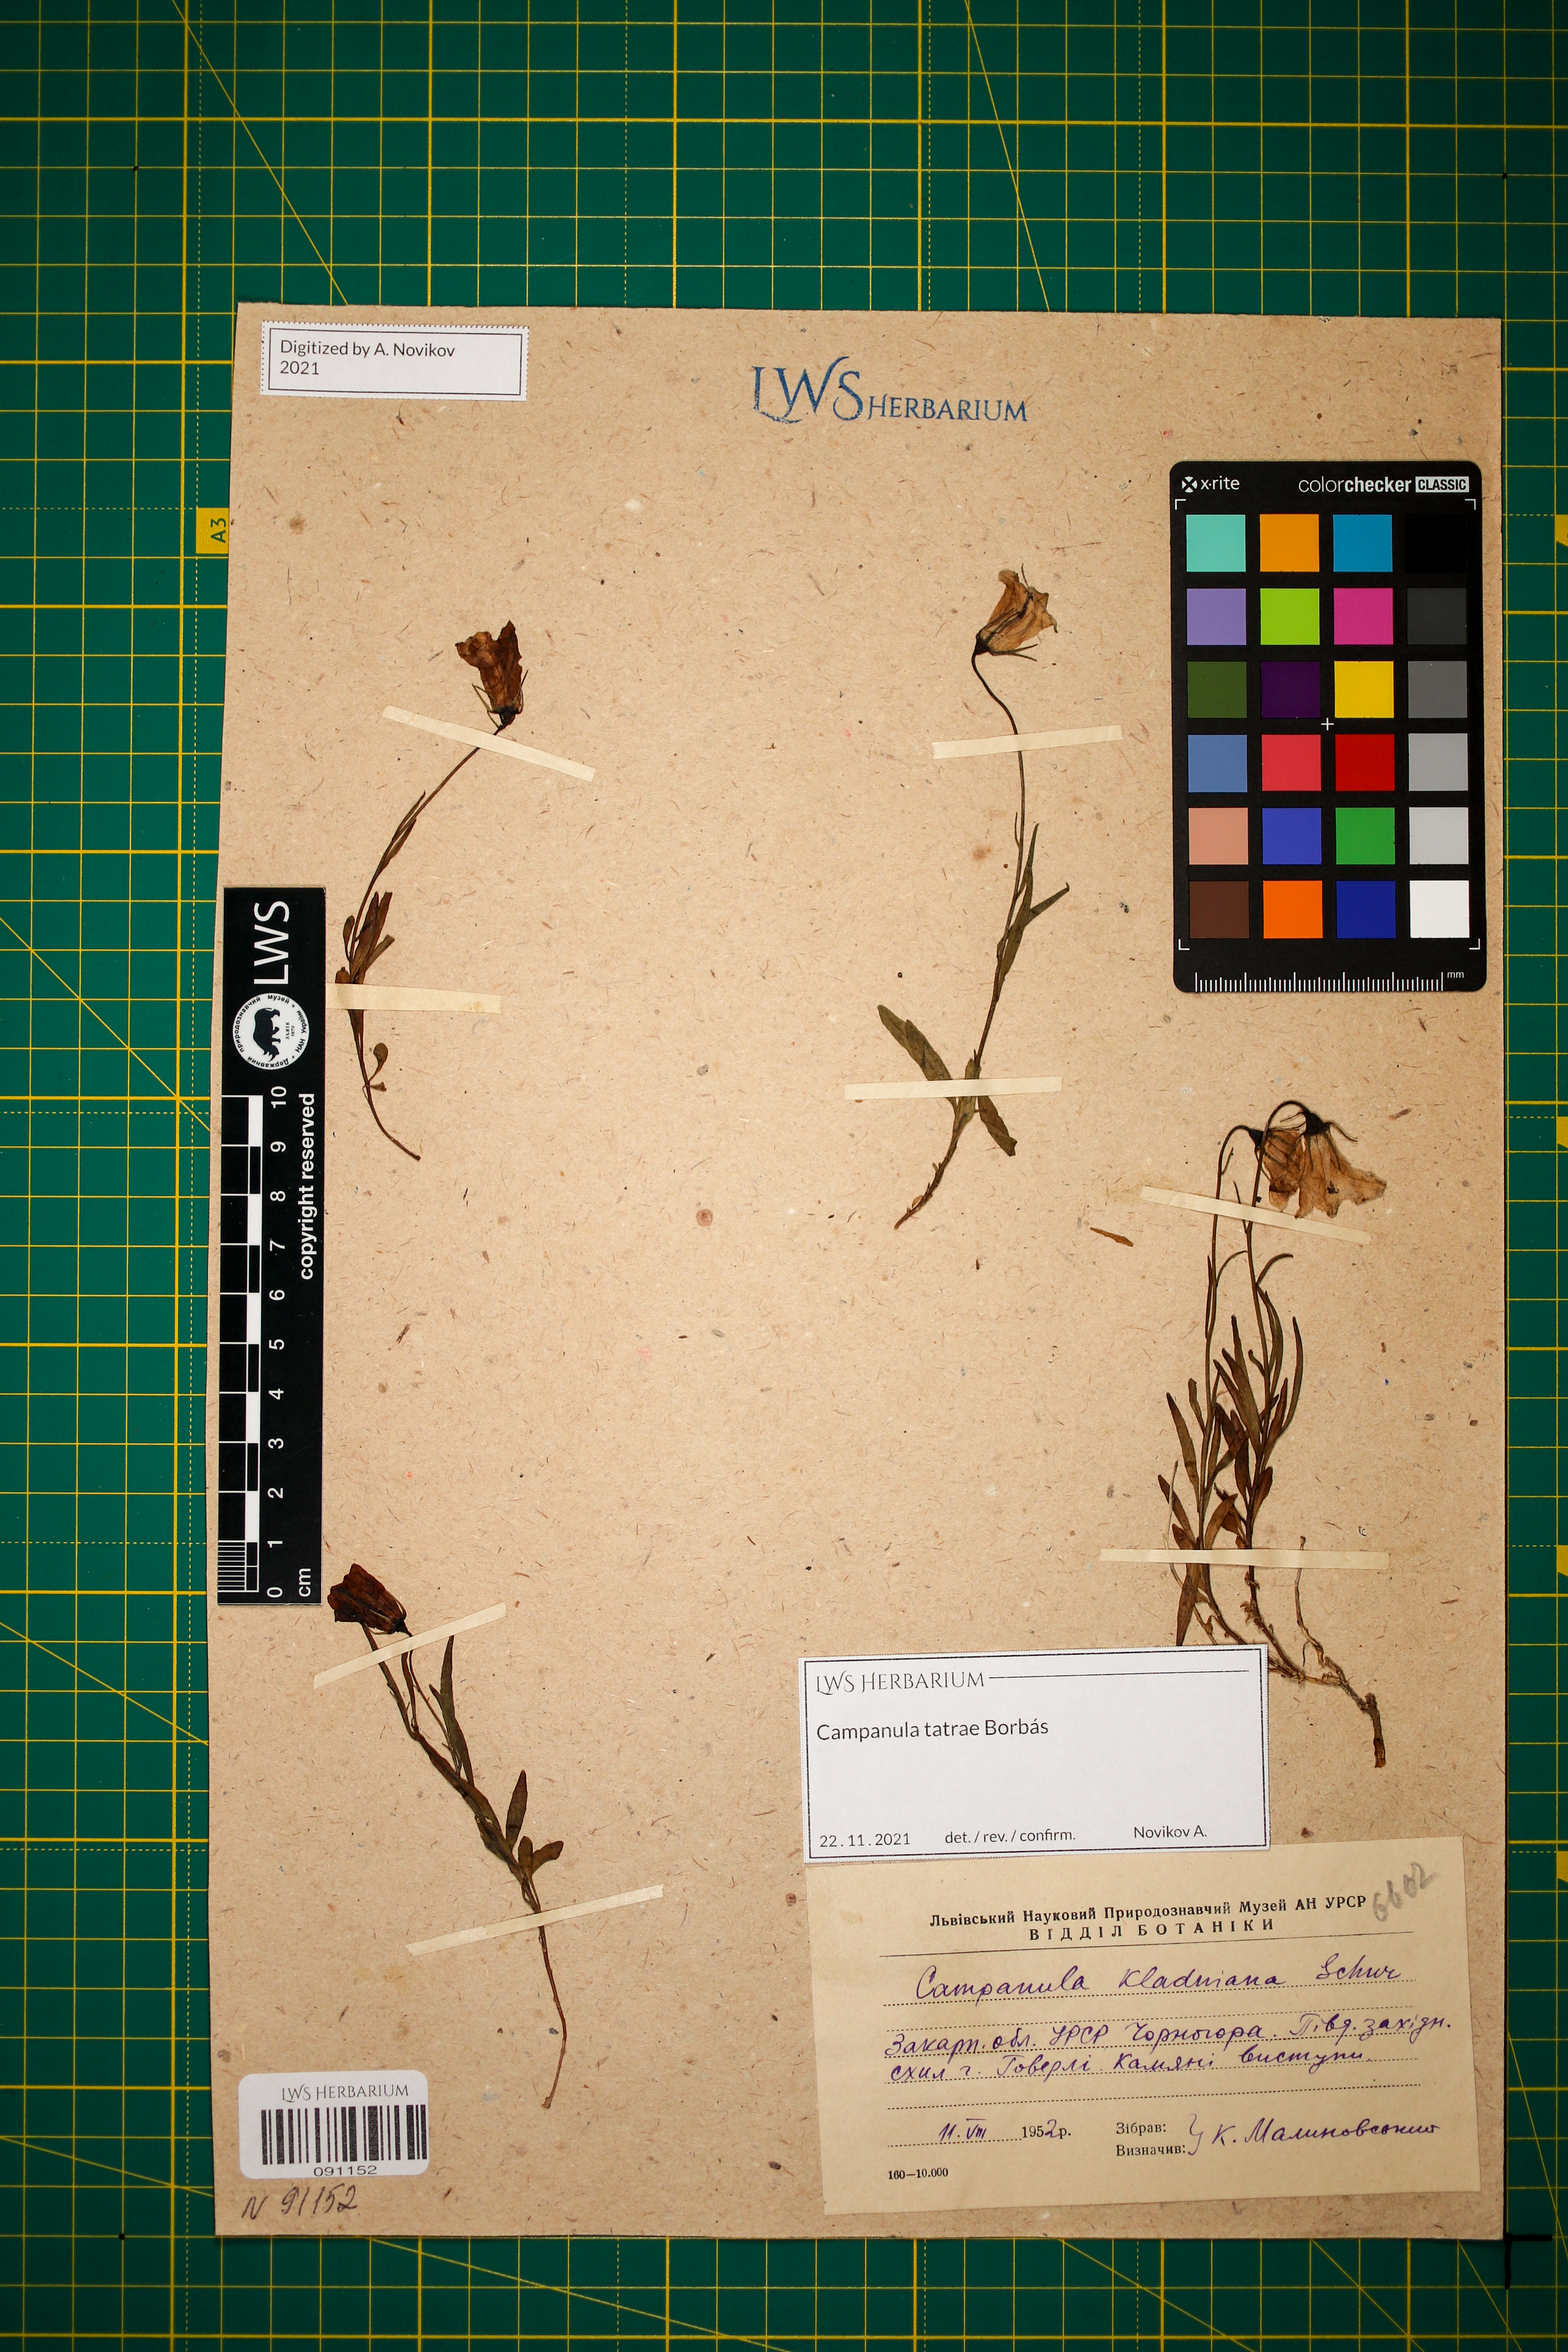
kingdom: Plantae
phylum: Tracheophyta
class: Magnoliopsida
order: Asterales
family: Campanulaceae
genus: Campanula
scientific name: Campanula kladniana
